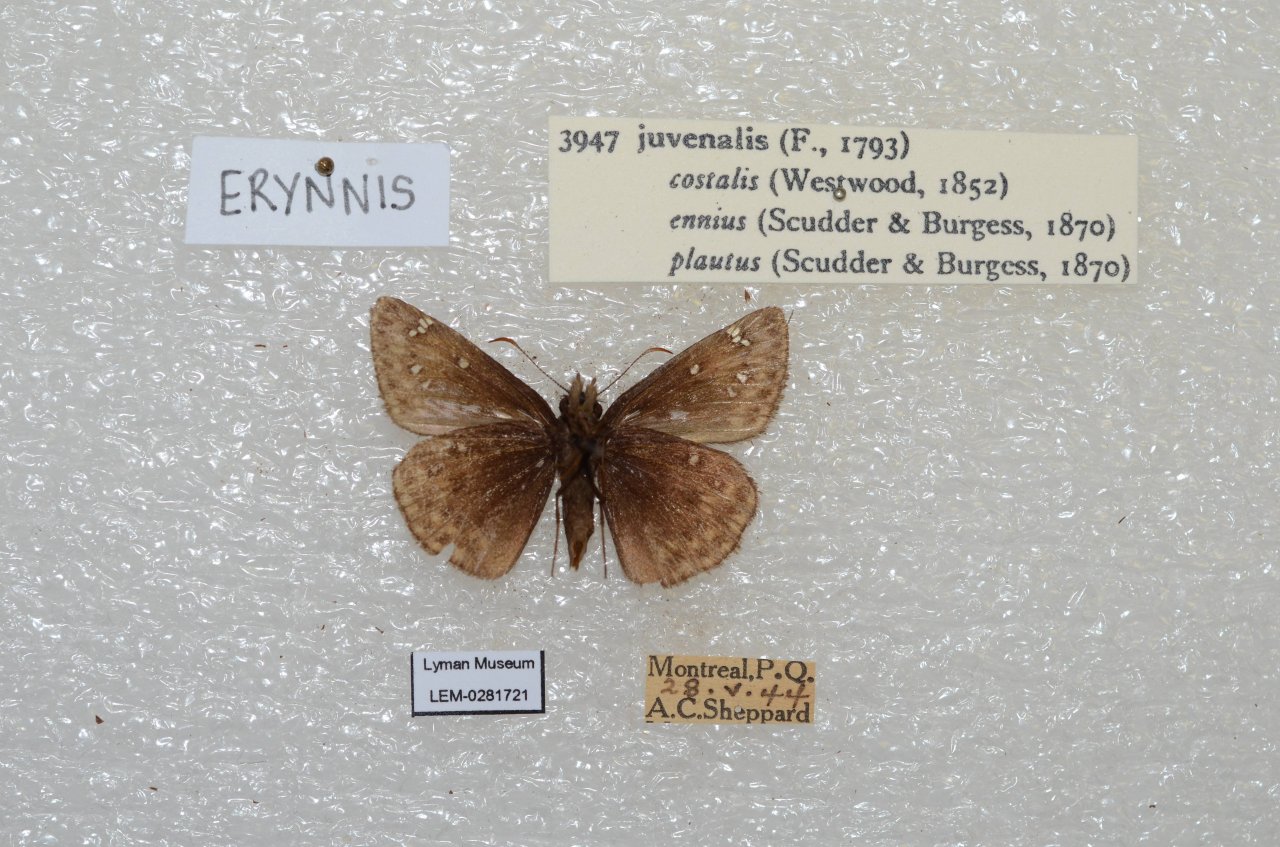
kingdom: Animalia
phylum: Arthropoda
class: Insecta
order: Lepidoptera
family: Hesperiidae
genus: Gesta
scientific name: Gesta
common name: Juvenal's Duskywing
